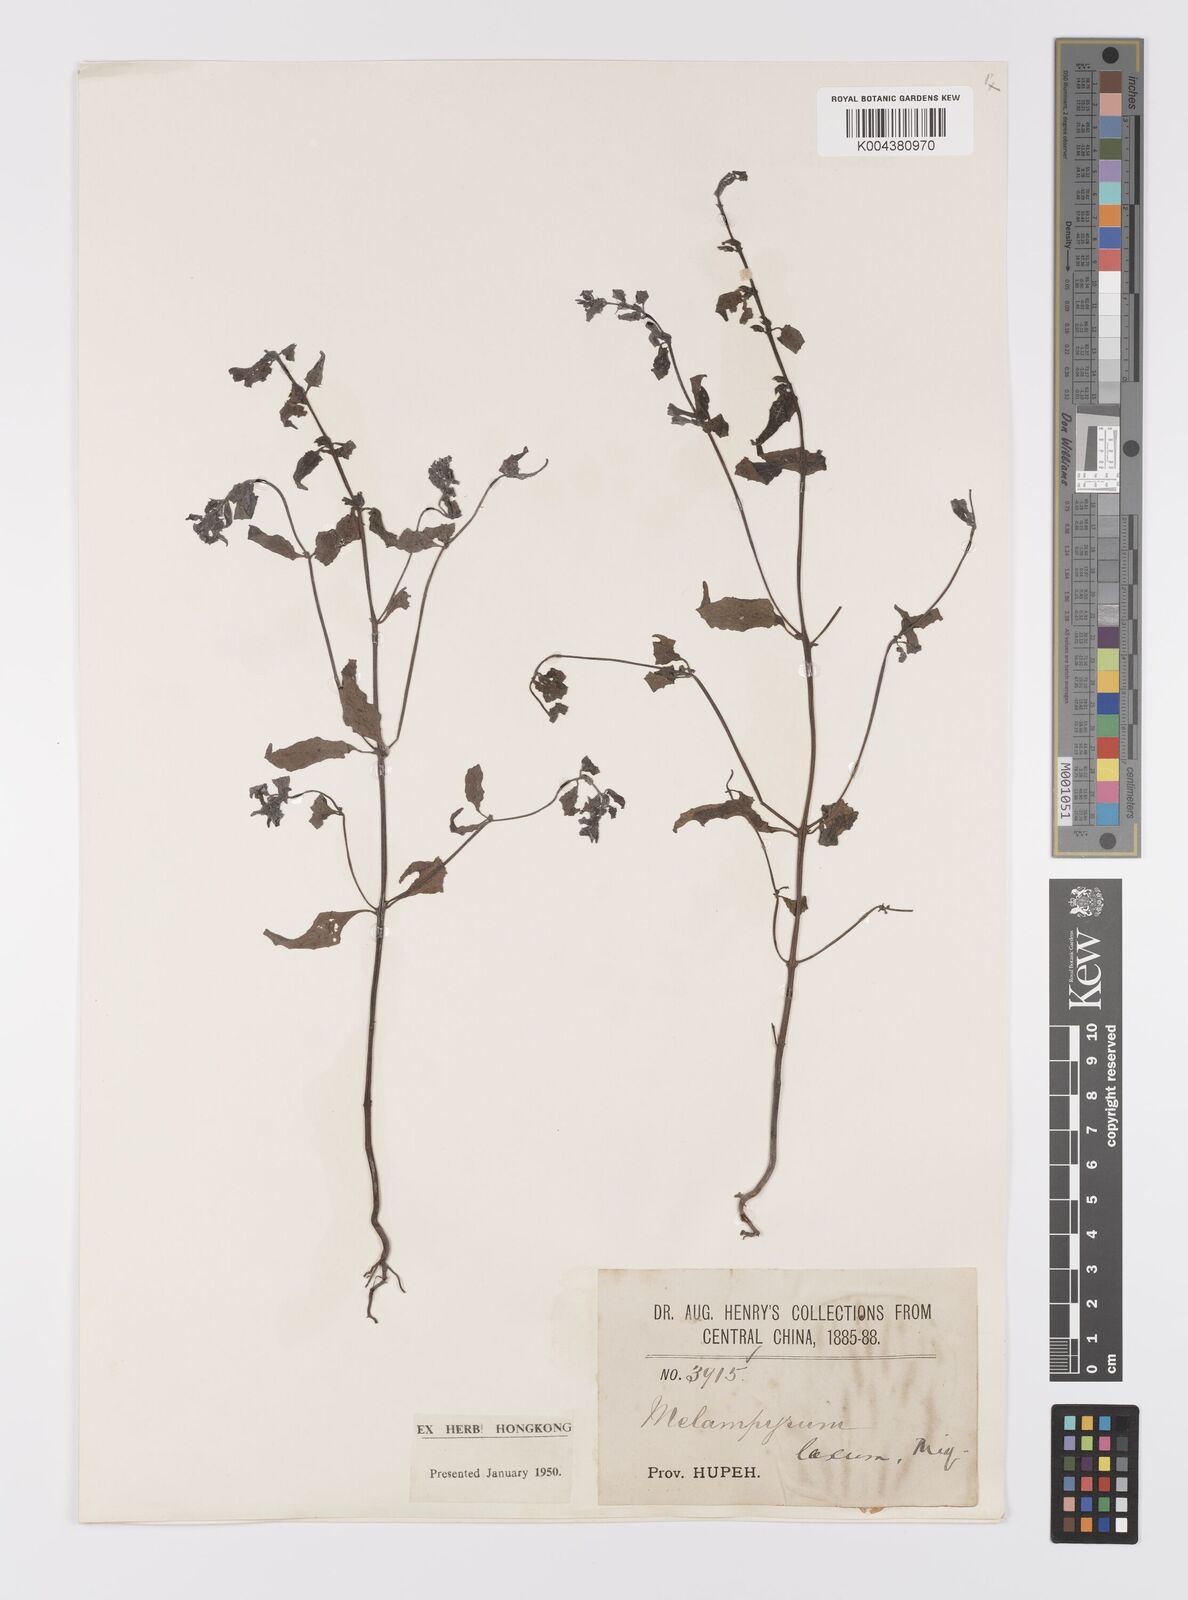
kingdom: Plantae
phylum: Tracheophyta
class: Magnoliopsida
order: Lamiales
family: Orobanchaceae
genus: Melampyrum
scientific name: Melampyrum laxum
